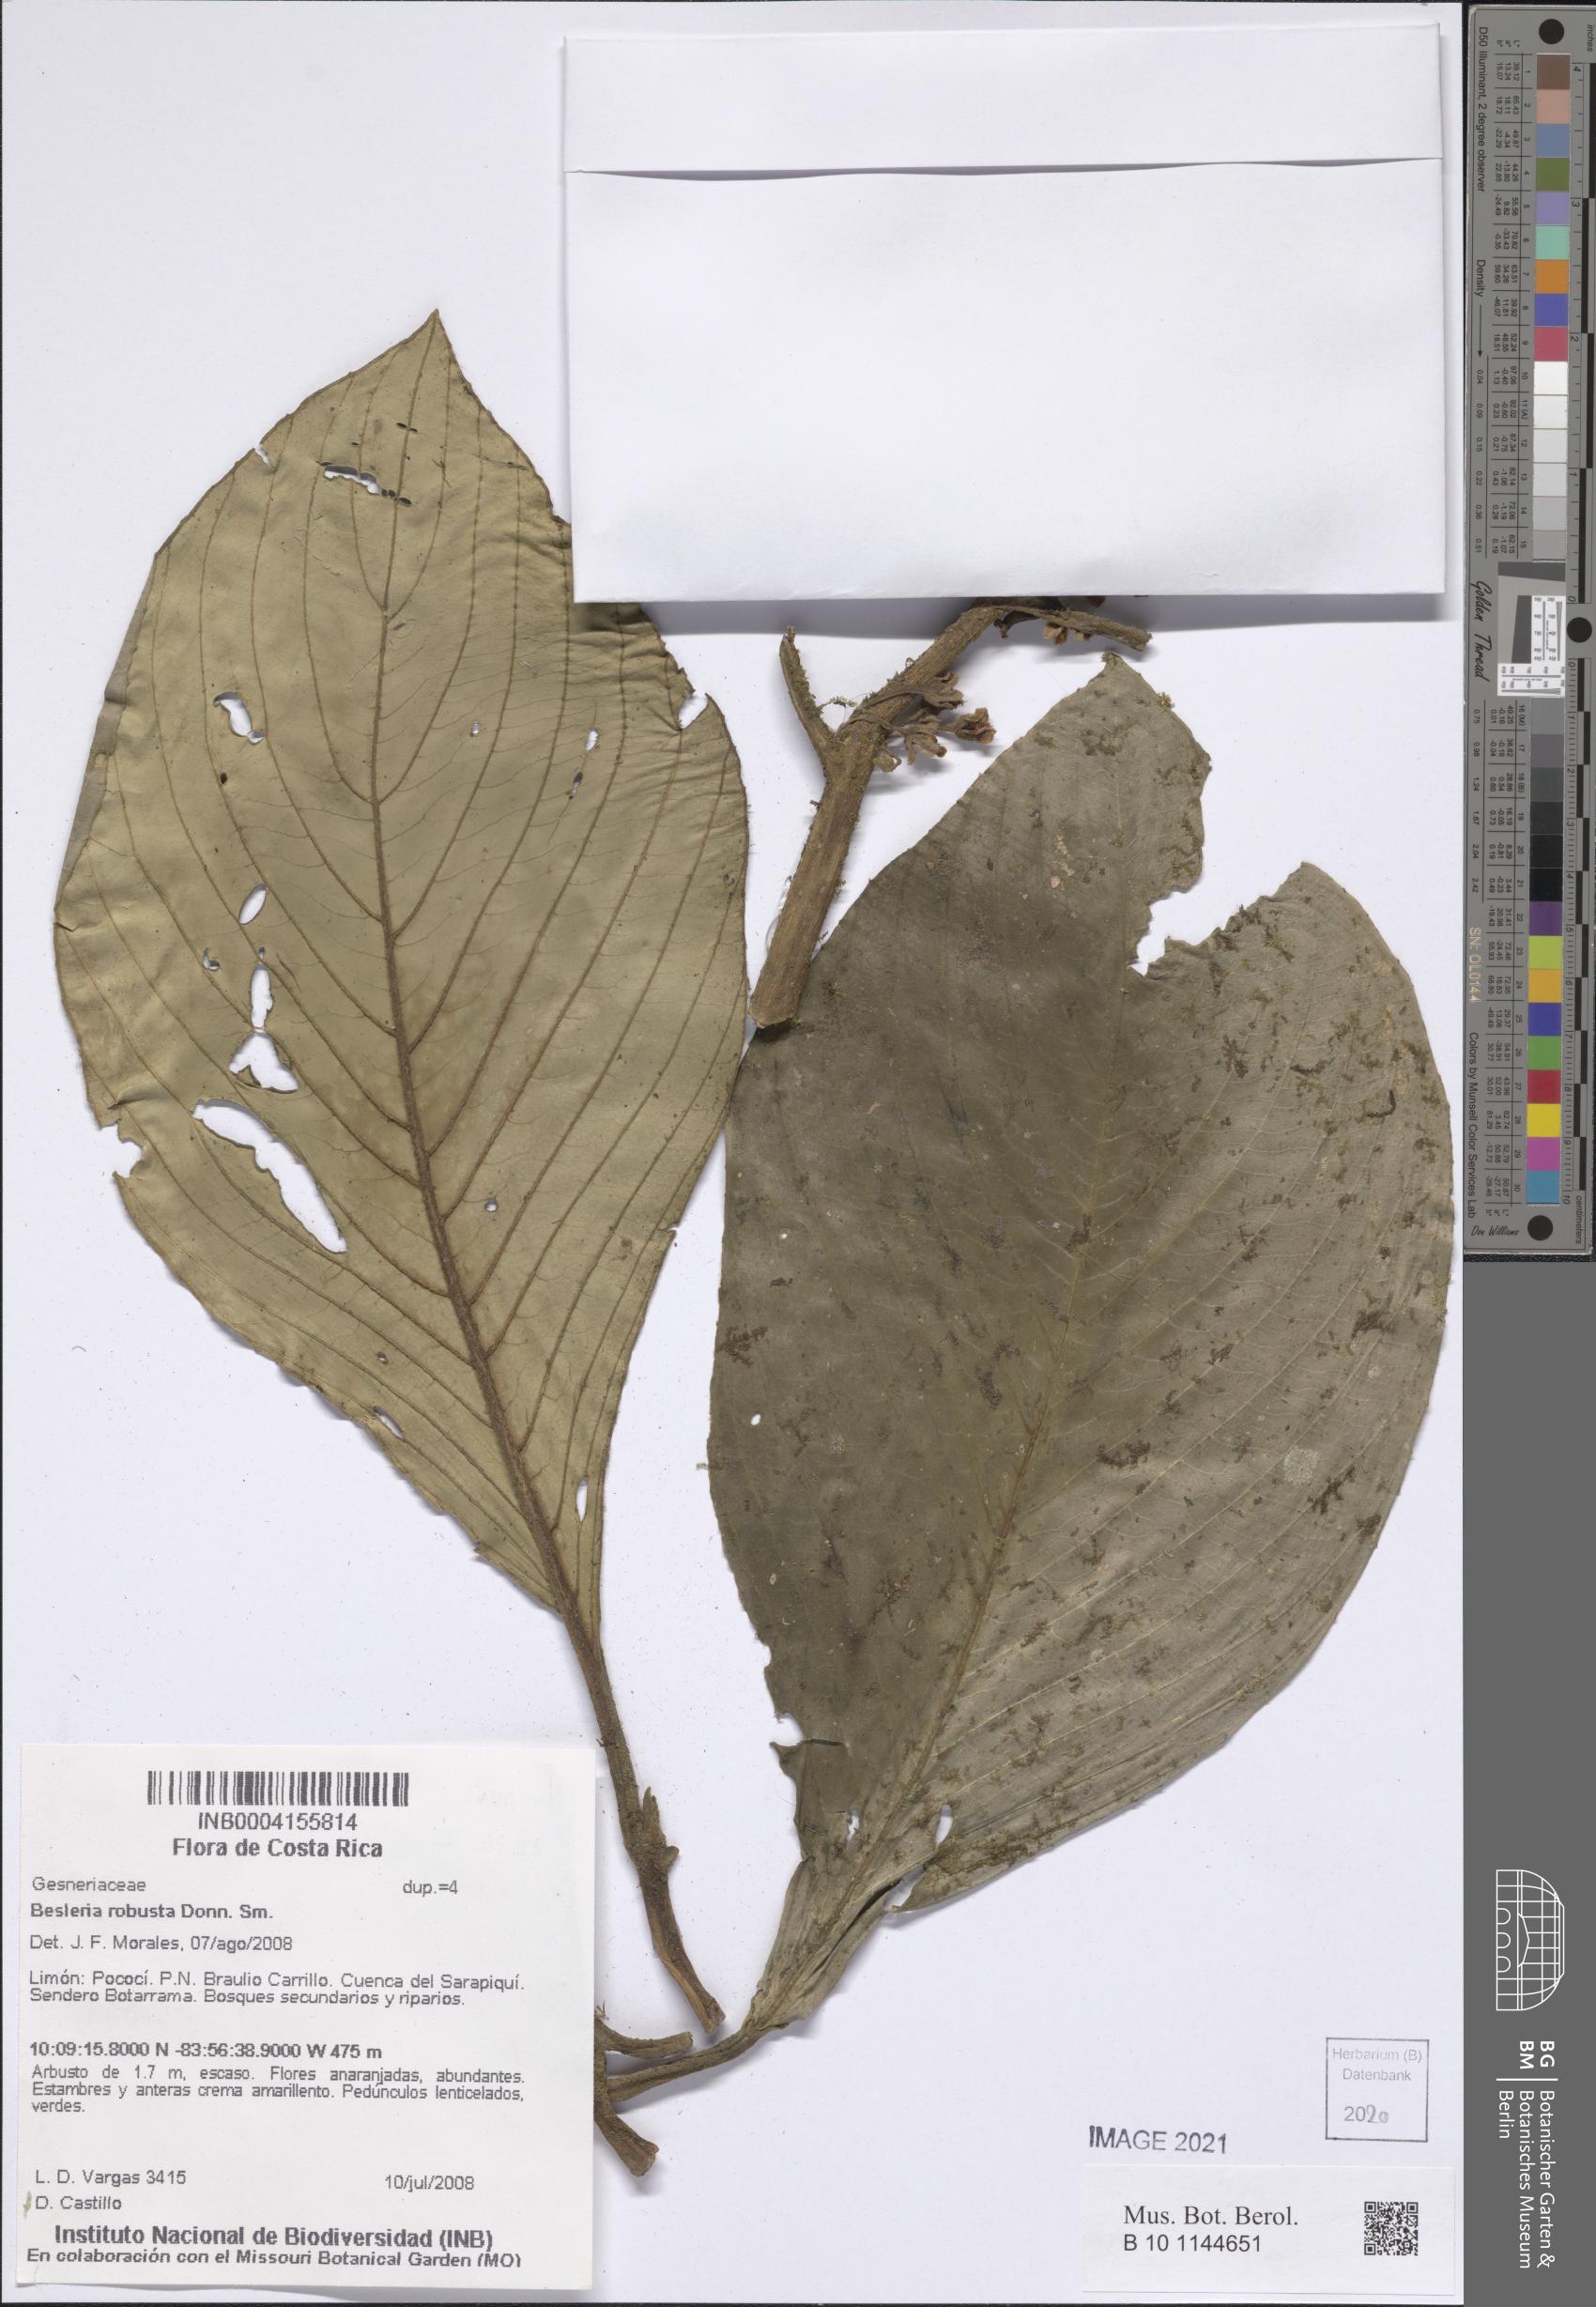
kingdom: Plantae
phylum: Tracheophyta
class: Magnoliopsida
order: Lamiales
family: Gesneriaceae
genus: Besleria
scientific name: Besleria robusta
